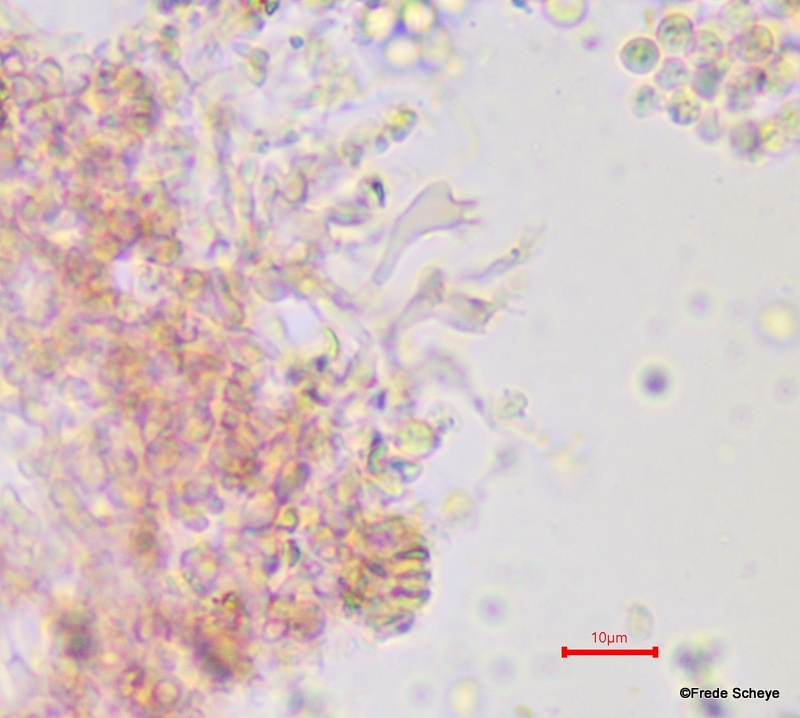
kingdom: Fungi
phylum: Basidiomycota
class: Agaricomycetes
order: Agaricales
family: Pleurotaceae
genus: Resupinatus
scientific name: Resupinatus trichotis
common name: mørkfiltet barkhat
